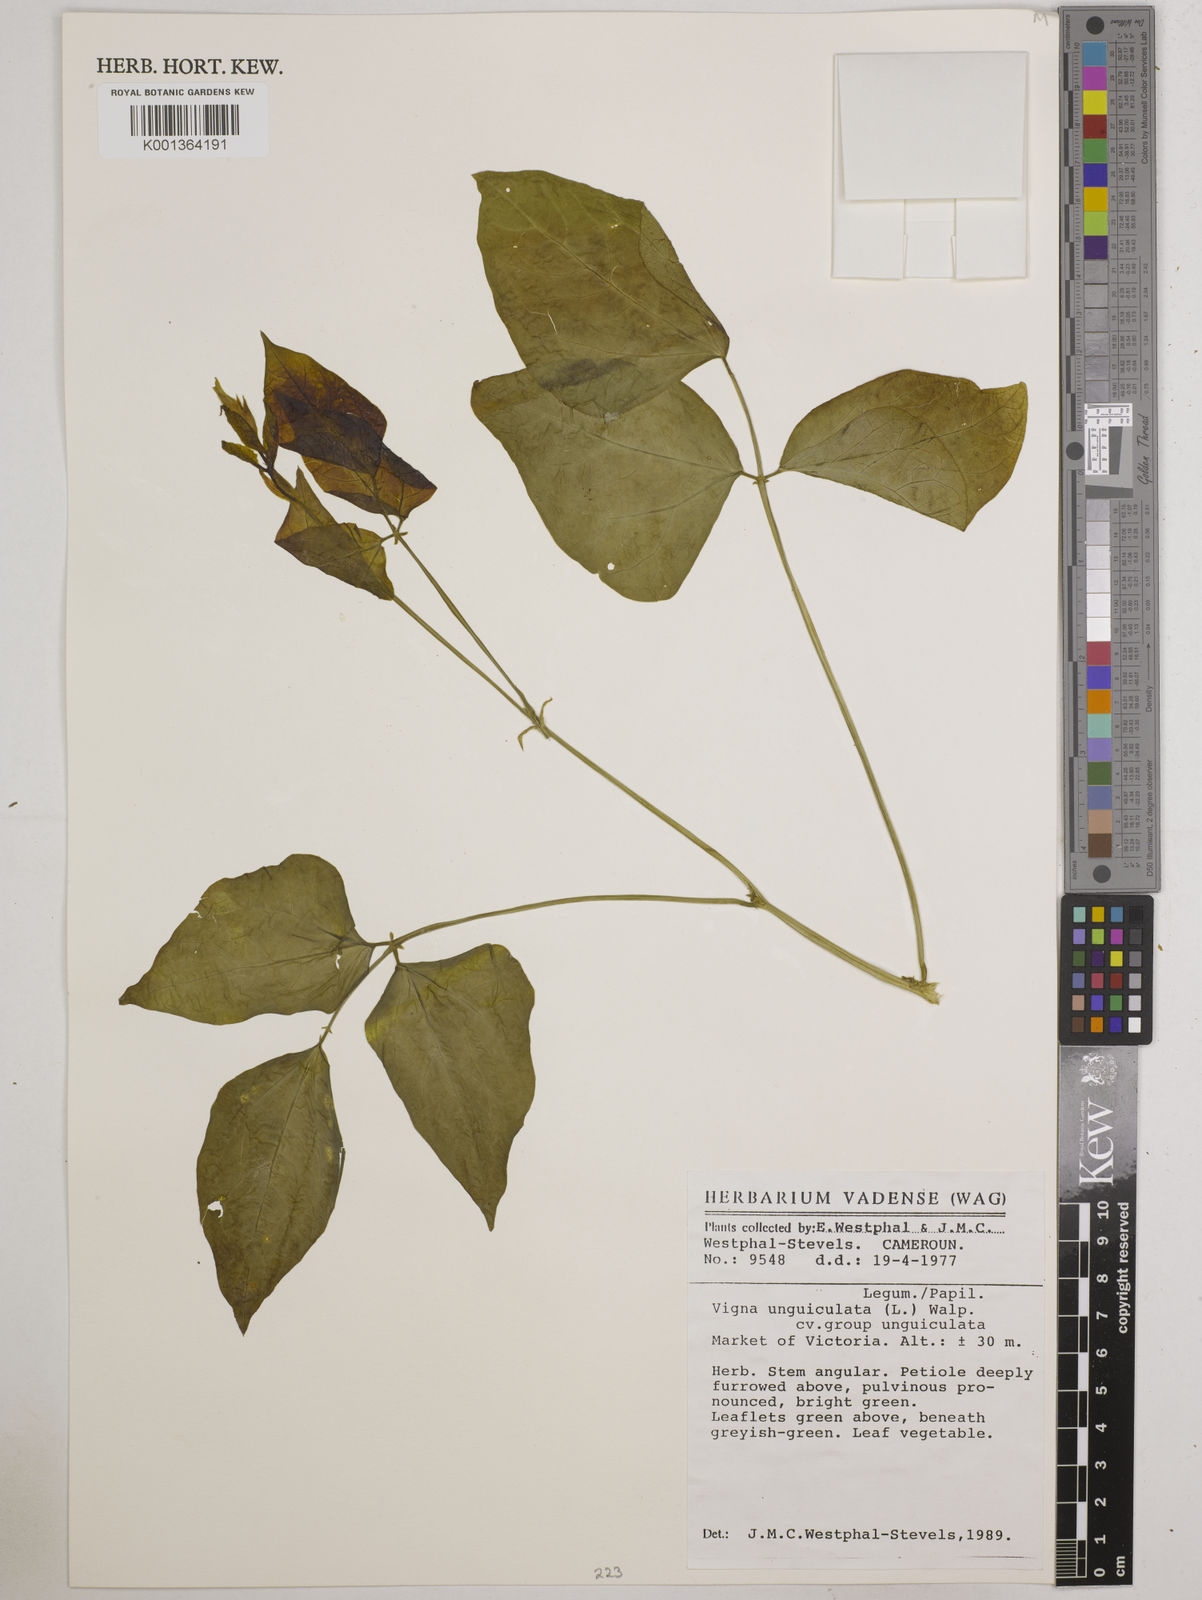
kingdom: Plantae
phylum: Tracheophyta
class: Magnoliopsida
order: Fabales
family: Fabaceae
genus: Vigna
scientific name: Vigna unguiculata
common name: Cowpea
